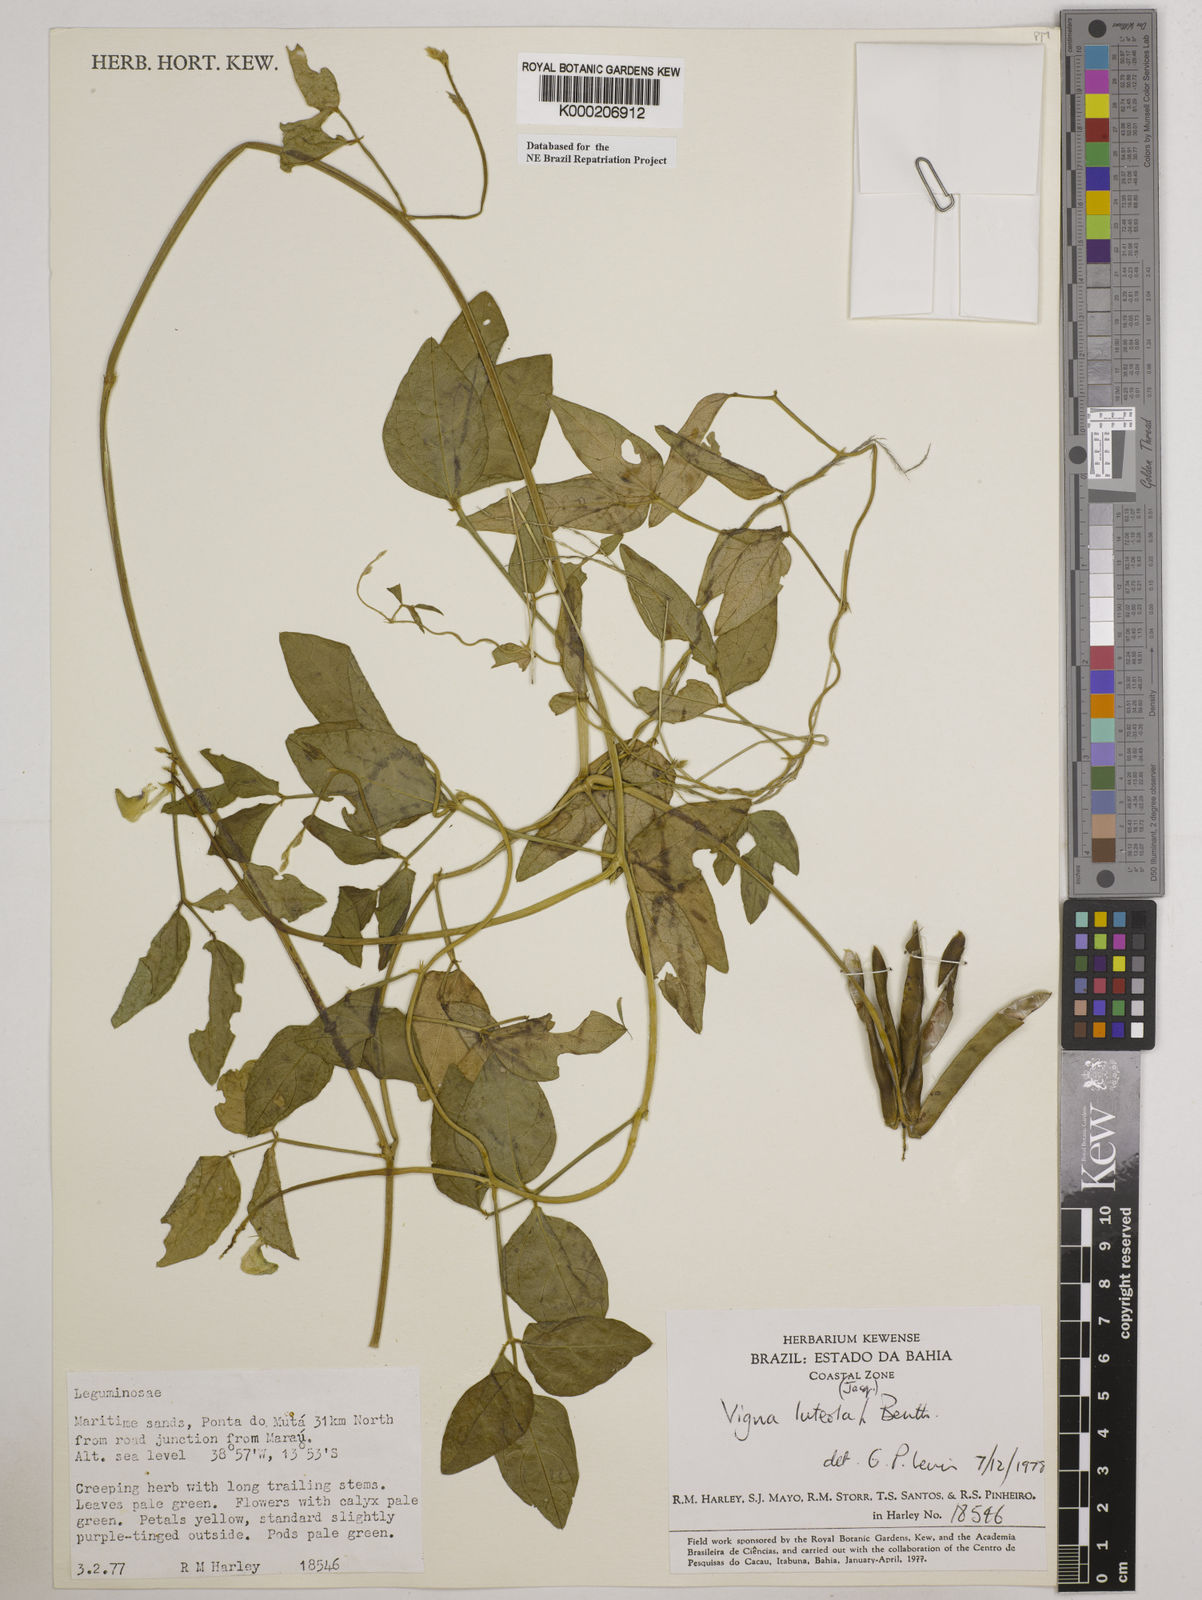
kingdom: Plantae
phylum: Tracheophyta
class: Magnoliopsida
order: Fabales
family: Fabaceae
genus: Vigna
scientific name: Vigna luteola
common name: Hairypod cowpea
